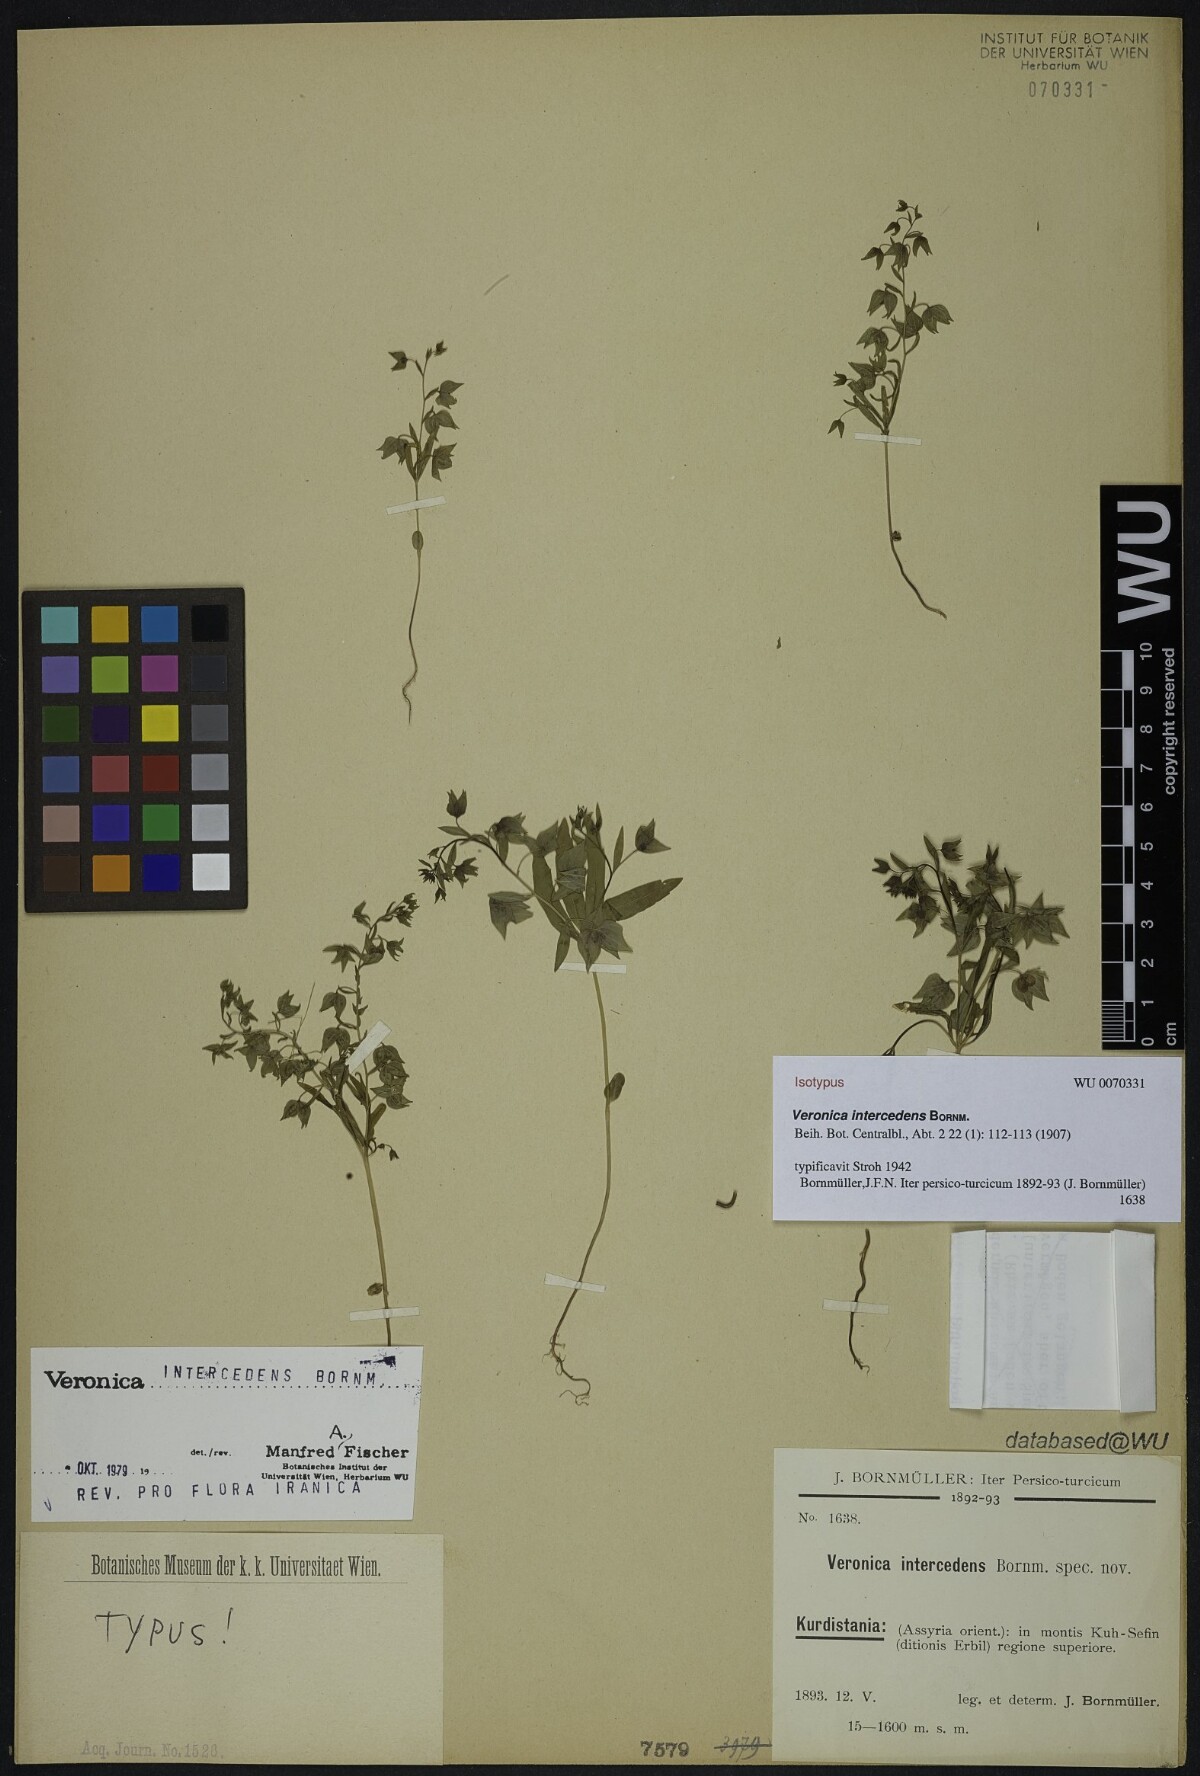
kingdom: Plantae
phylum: Tracheophyta
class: Magnoliopsida
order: Lamiales
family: Plantaginaceae
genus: Veronica
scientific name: Veronica intercedens
